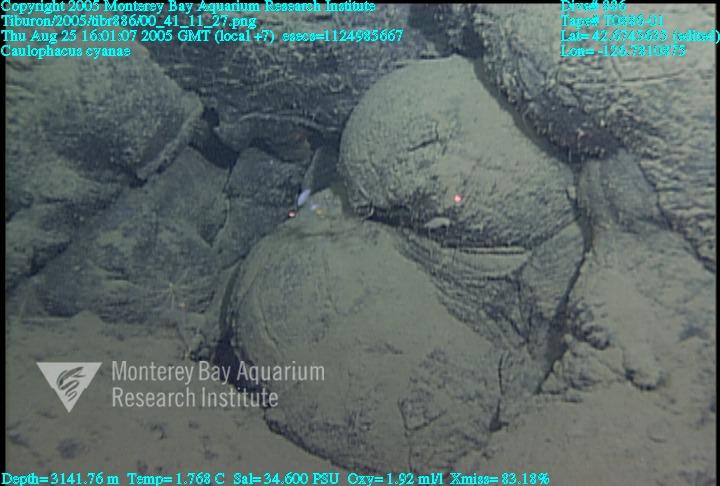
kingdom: Animalia
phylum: Porifera
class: Hexactinellida
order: Lyssacinosida
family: Rossellidae
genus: Caulophacus
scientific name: Caulophacus cyanae
